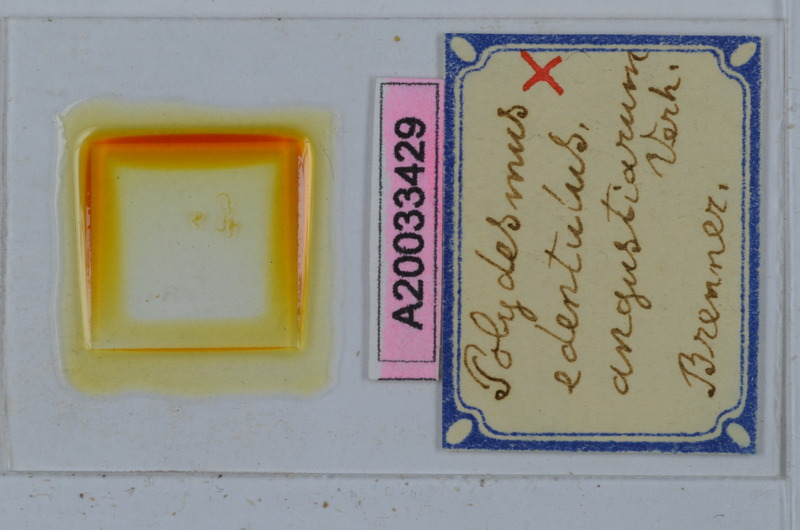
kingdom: Animalia
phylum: Arthropoda
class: Diplopoda
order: Polydesmida
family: Polydesmidae
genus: Polydesmus
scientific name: Polydesmus edentulus
